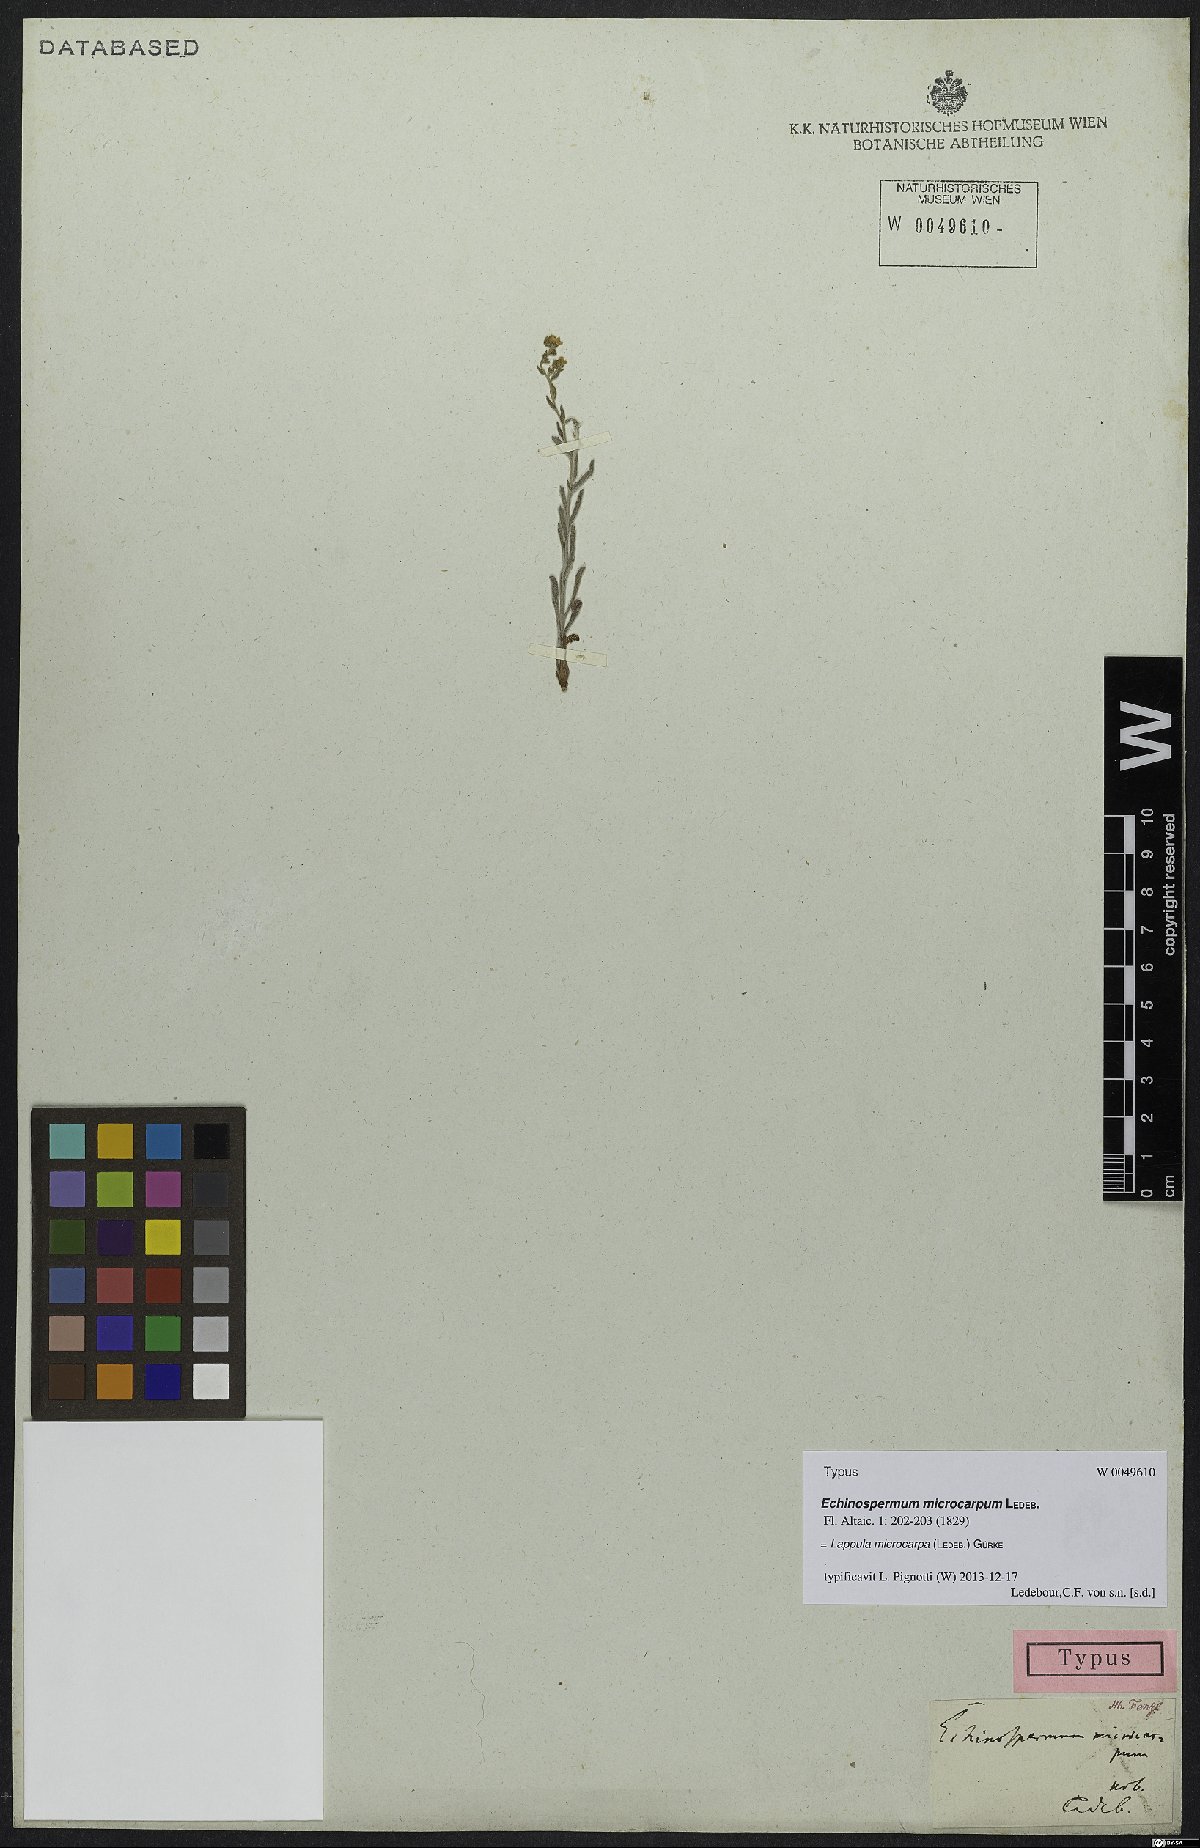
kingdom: Plantae
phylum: Tracheophyta
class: Magnoliopsida
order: Boraginales
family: Boraginaceae
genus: Lappula
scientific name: Lappula microcarpa
